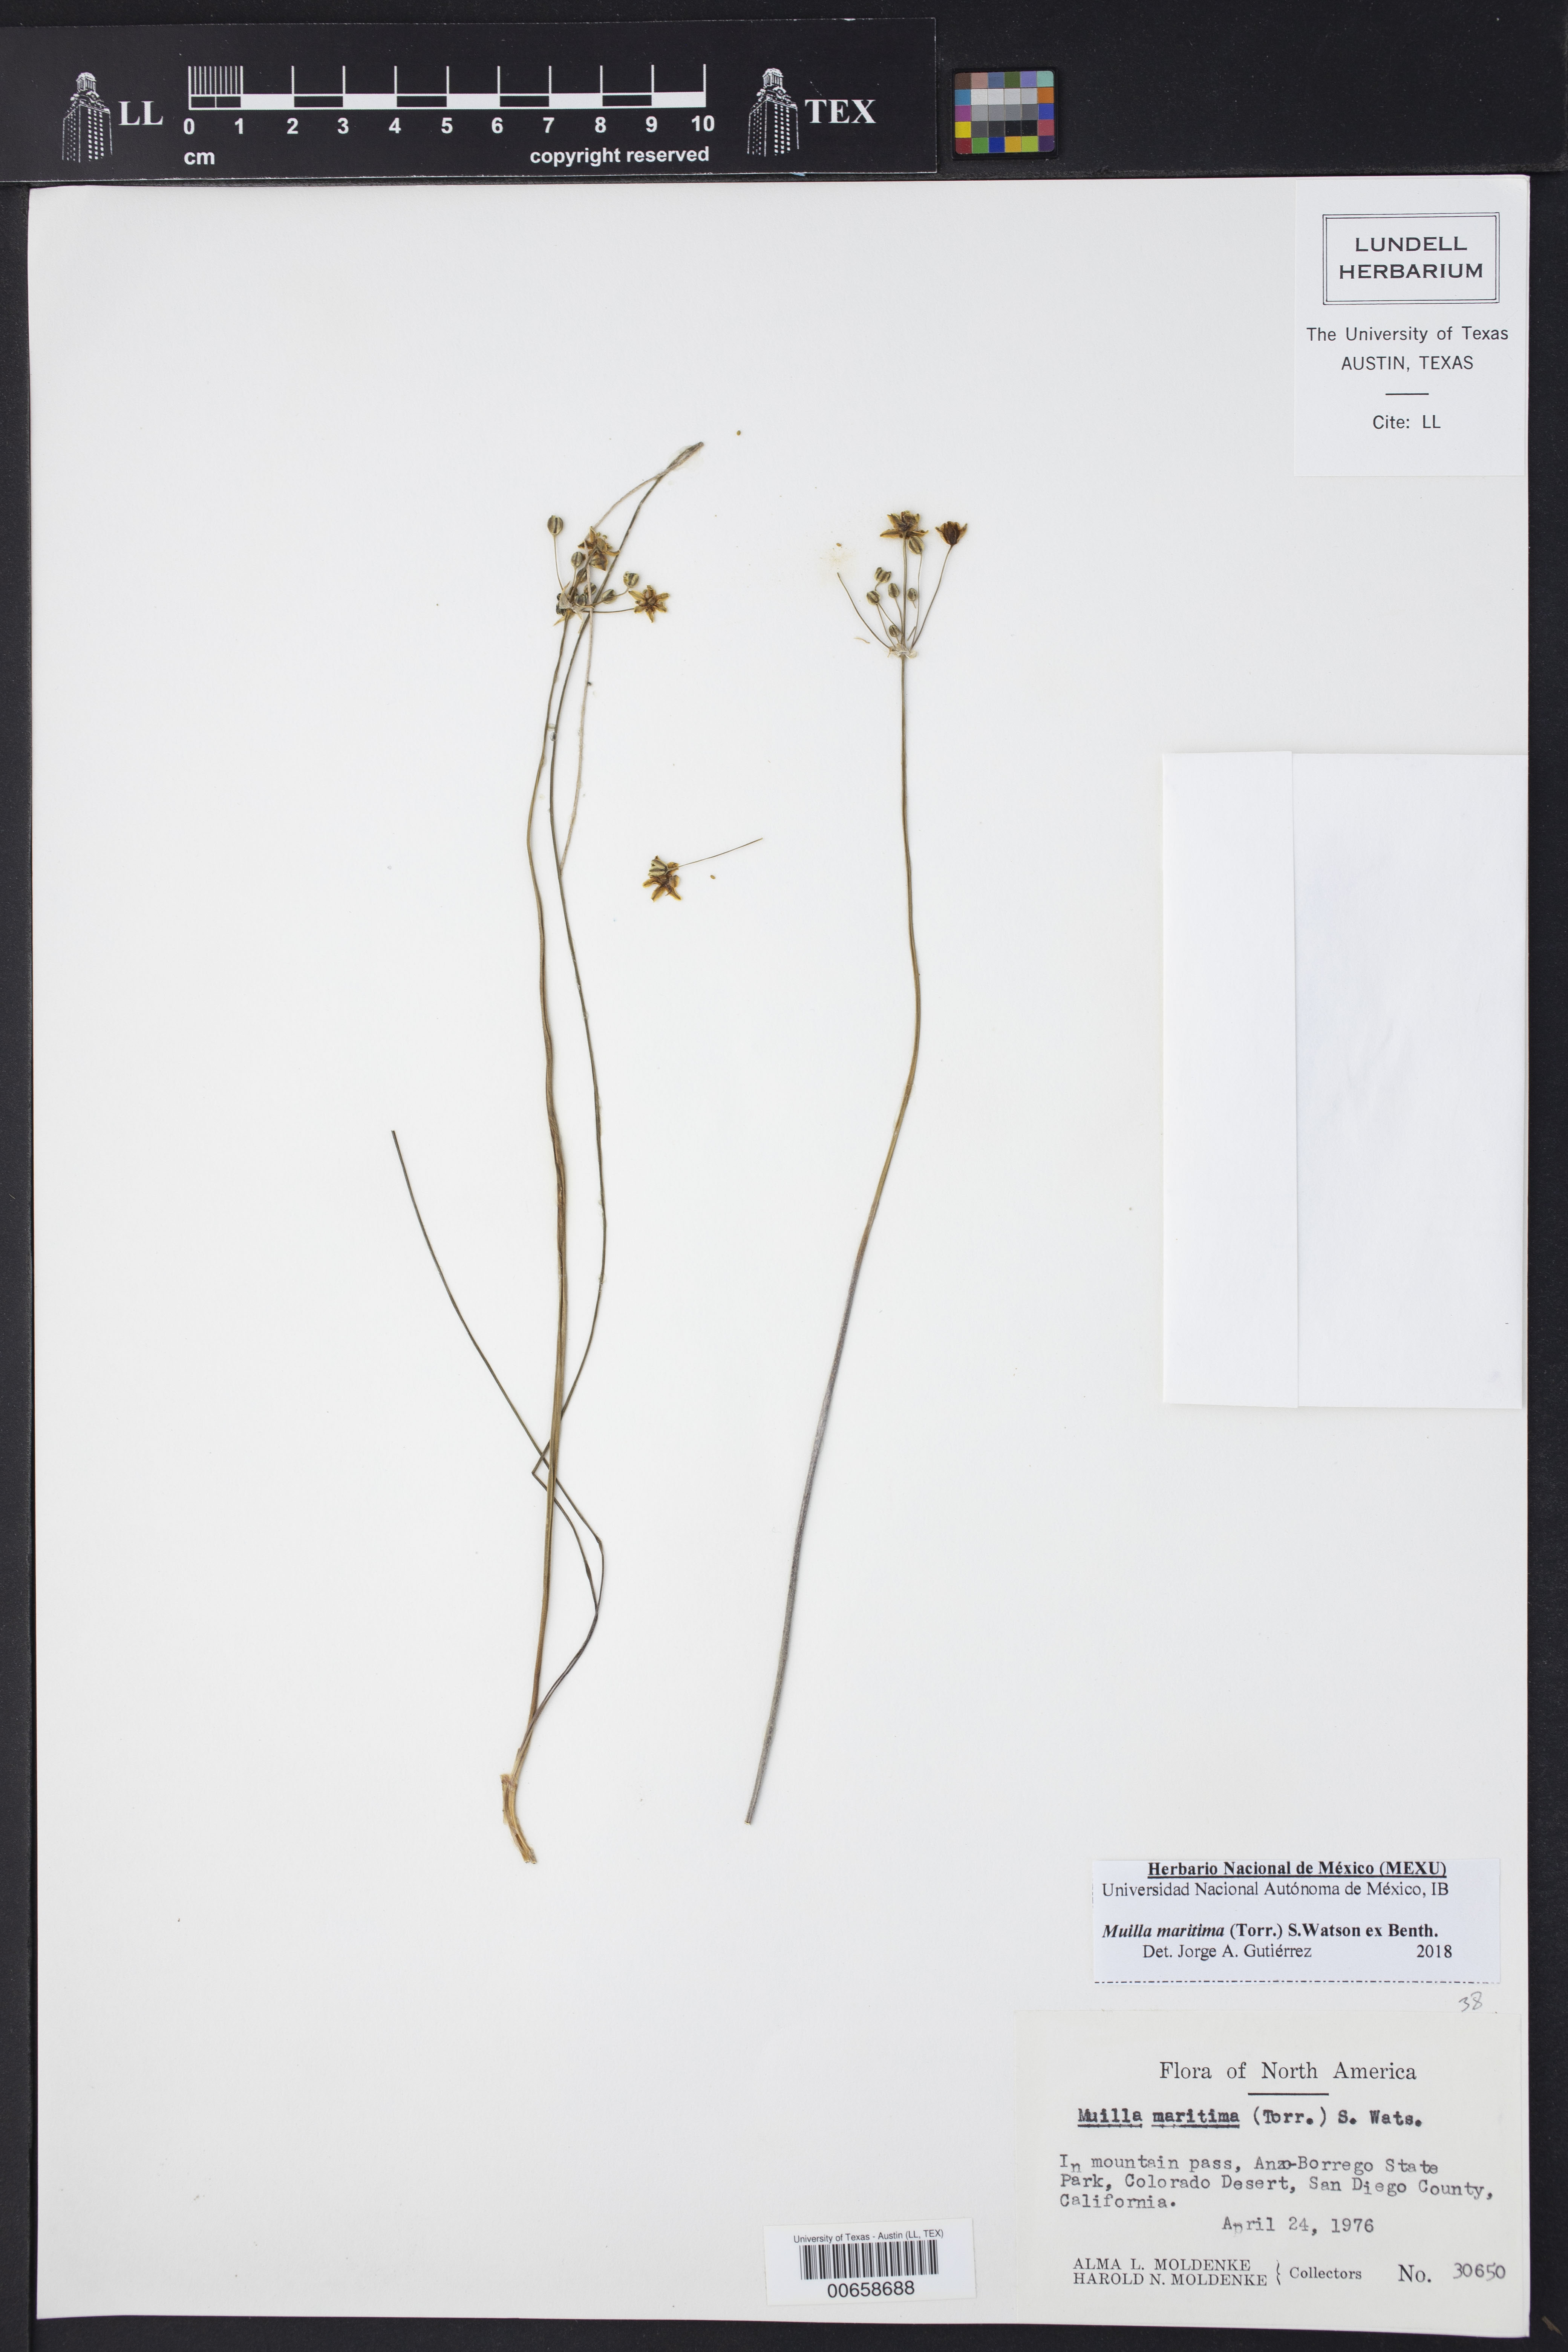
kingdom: Plantae
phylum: Tracheophyta
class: Liliopsida
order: Asparagales
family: Asparagaceae
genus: Muilla
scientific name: Muilla maritima
